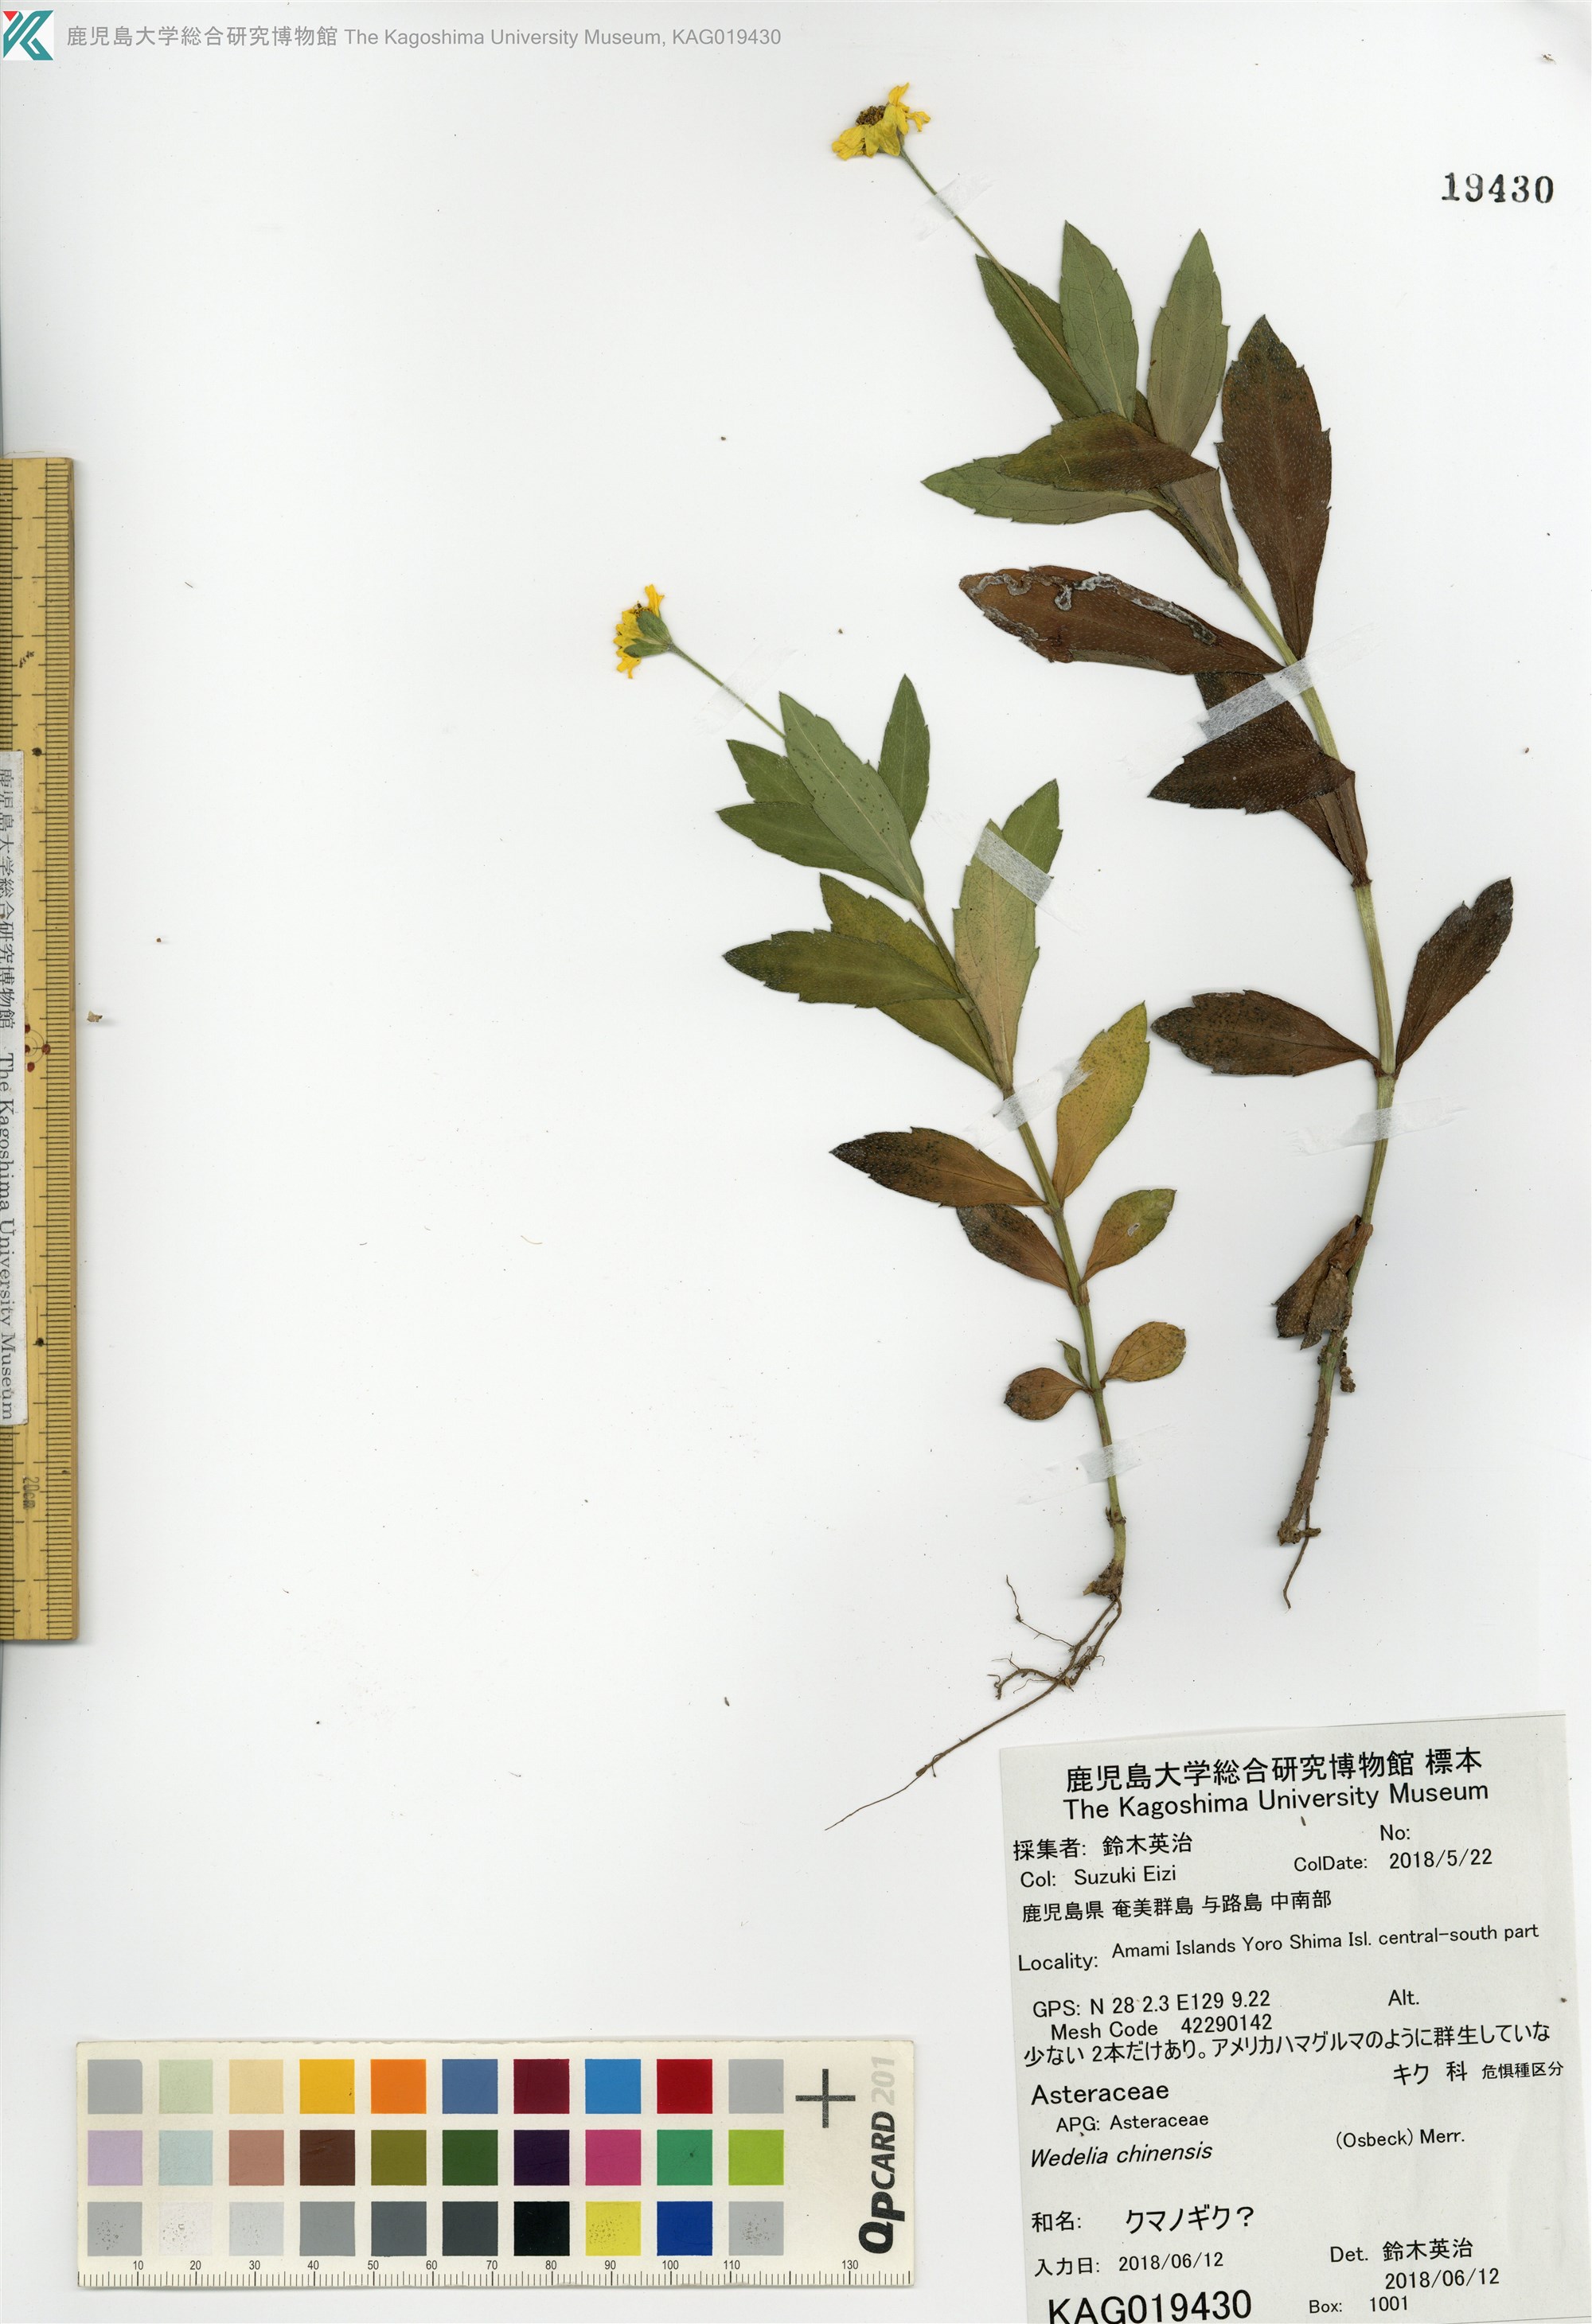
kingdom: Plantae
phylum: Tracheophyta
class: Magnoliopsida
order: Asterales
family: Asteraceae
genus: Sphagneticola
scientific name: Sphagneticola
